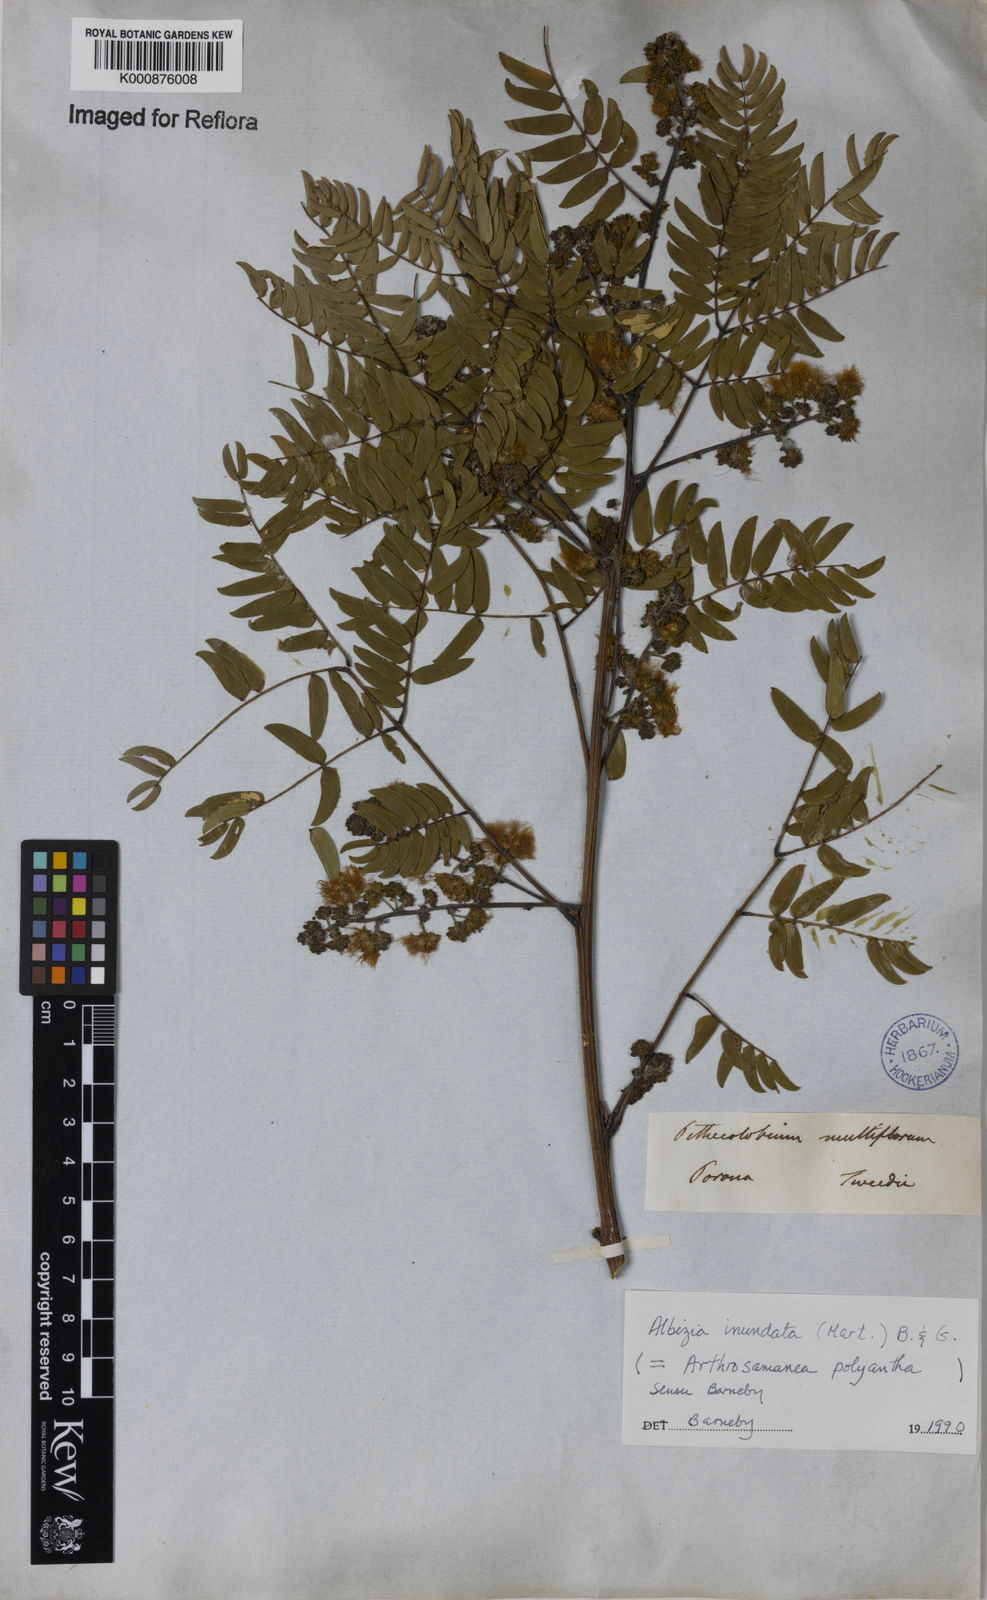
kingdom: Plantae
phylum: Tracheophyta
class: Magnoliopsida
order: Fabales
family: Fabaceae
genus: Albizia
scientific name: Albizia inundata
